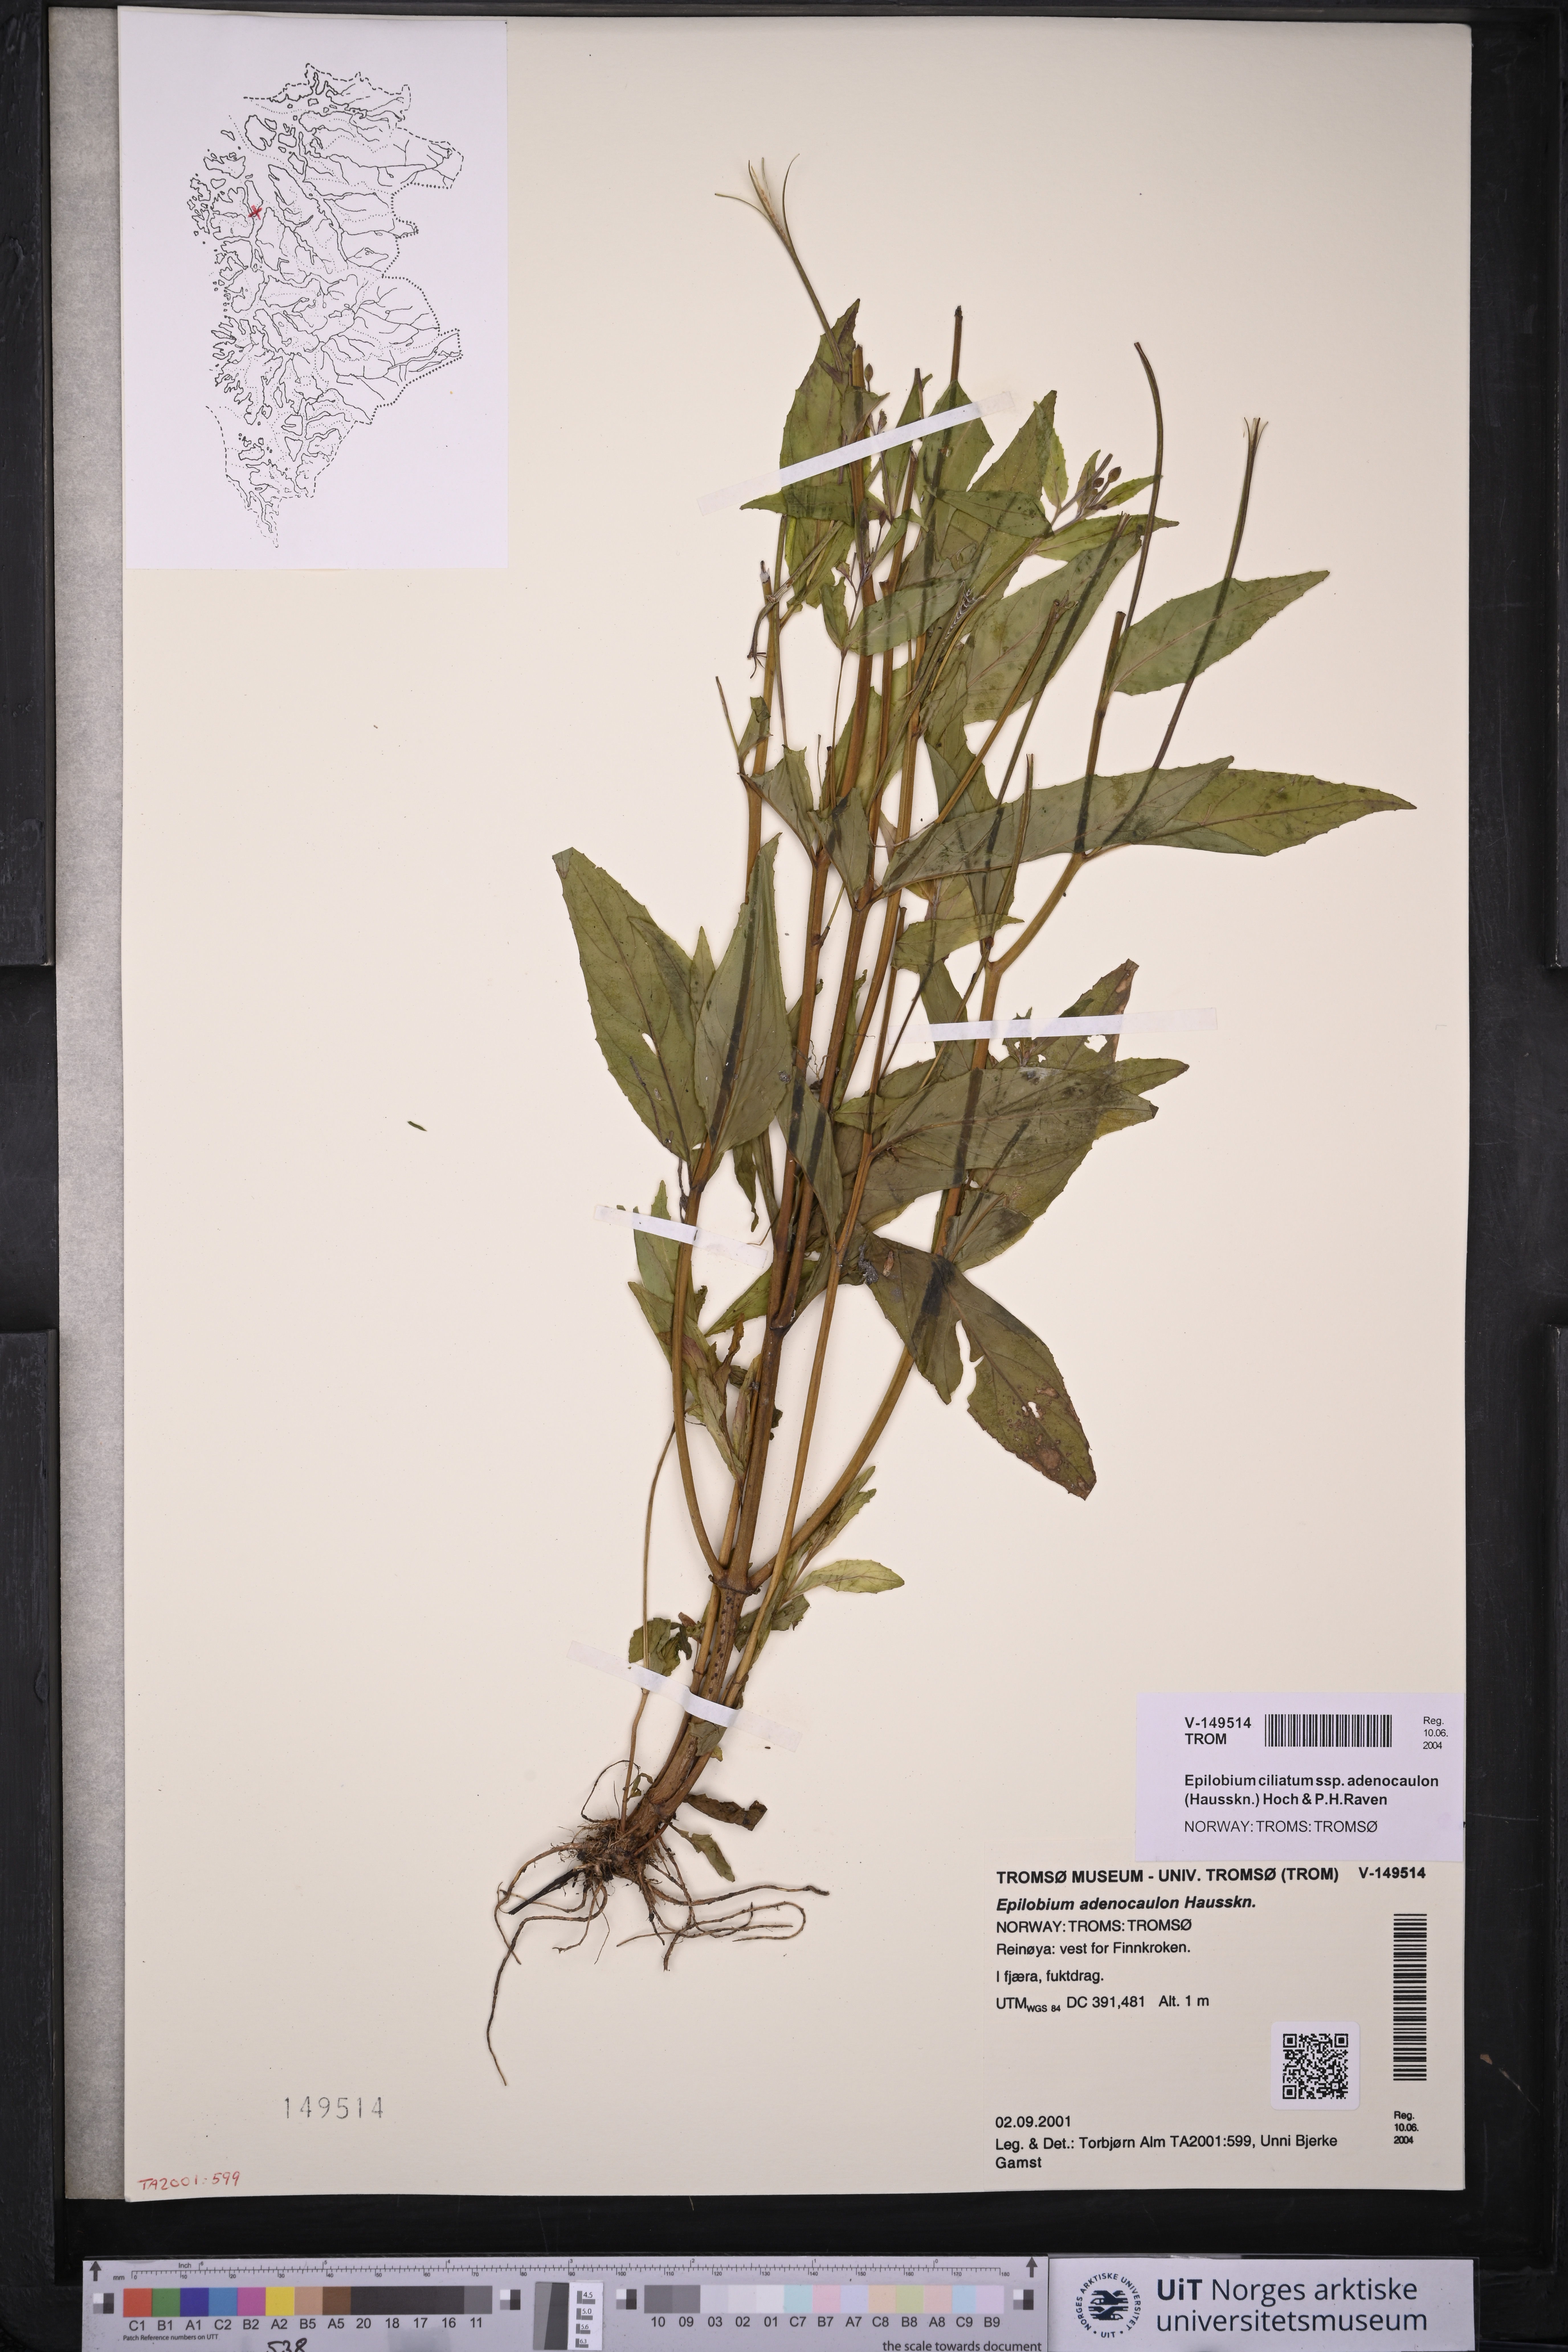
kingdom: Plantae
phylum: Tracheophyta
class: Magnoliopsida
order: Myrtales
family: Onagraceae
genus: Epilobium
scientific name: Epilobium ciliatum
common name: American willowherb
